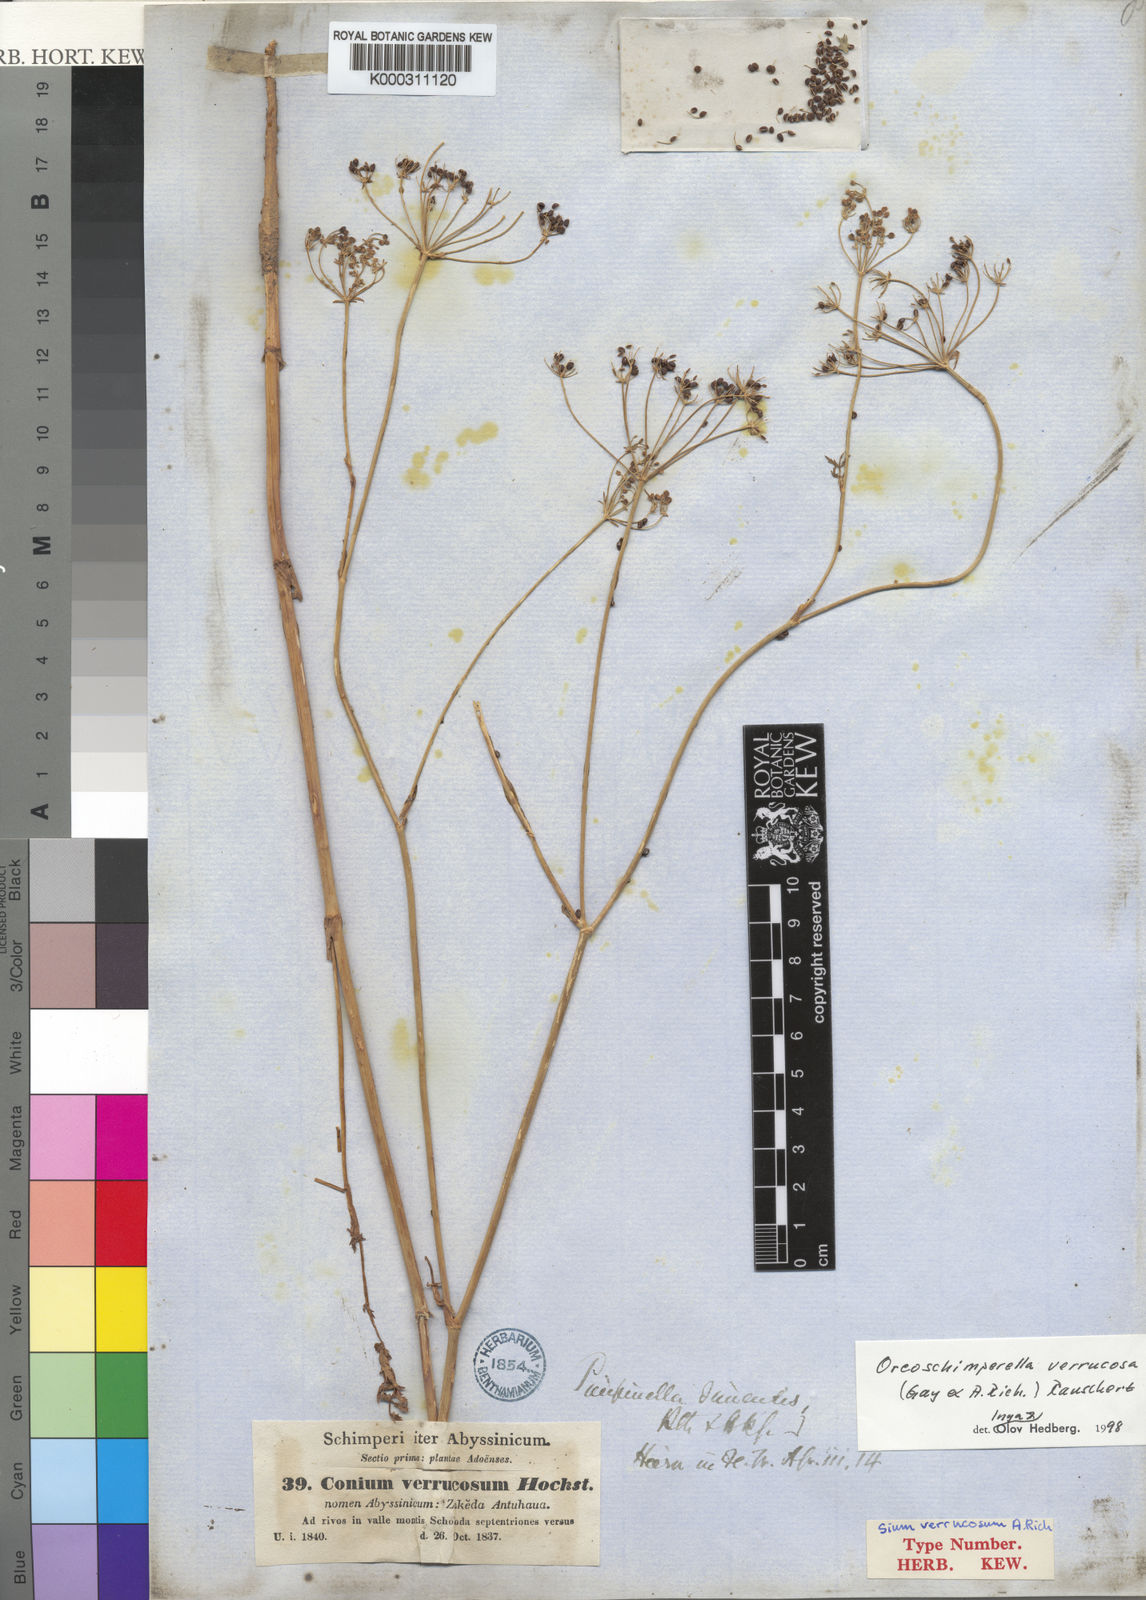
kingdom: Plantae
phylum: Tracheophyta
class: Magnoliopsida
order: Apiales
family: Apiaceae
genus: Oreoschimperella
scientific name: Oreoschimperella verrucosa
